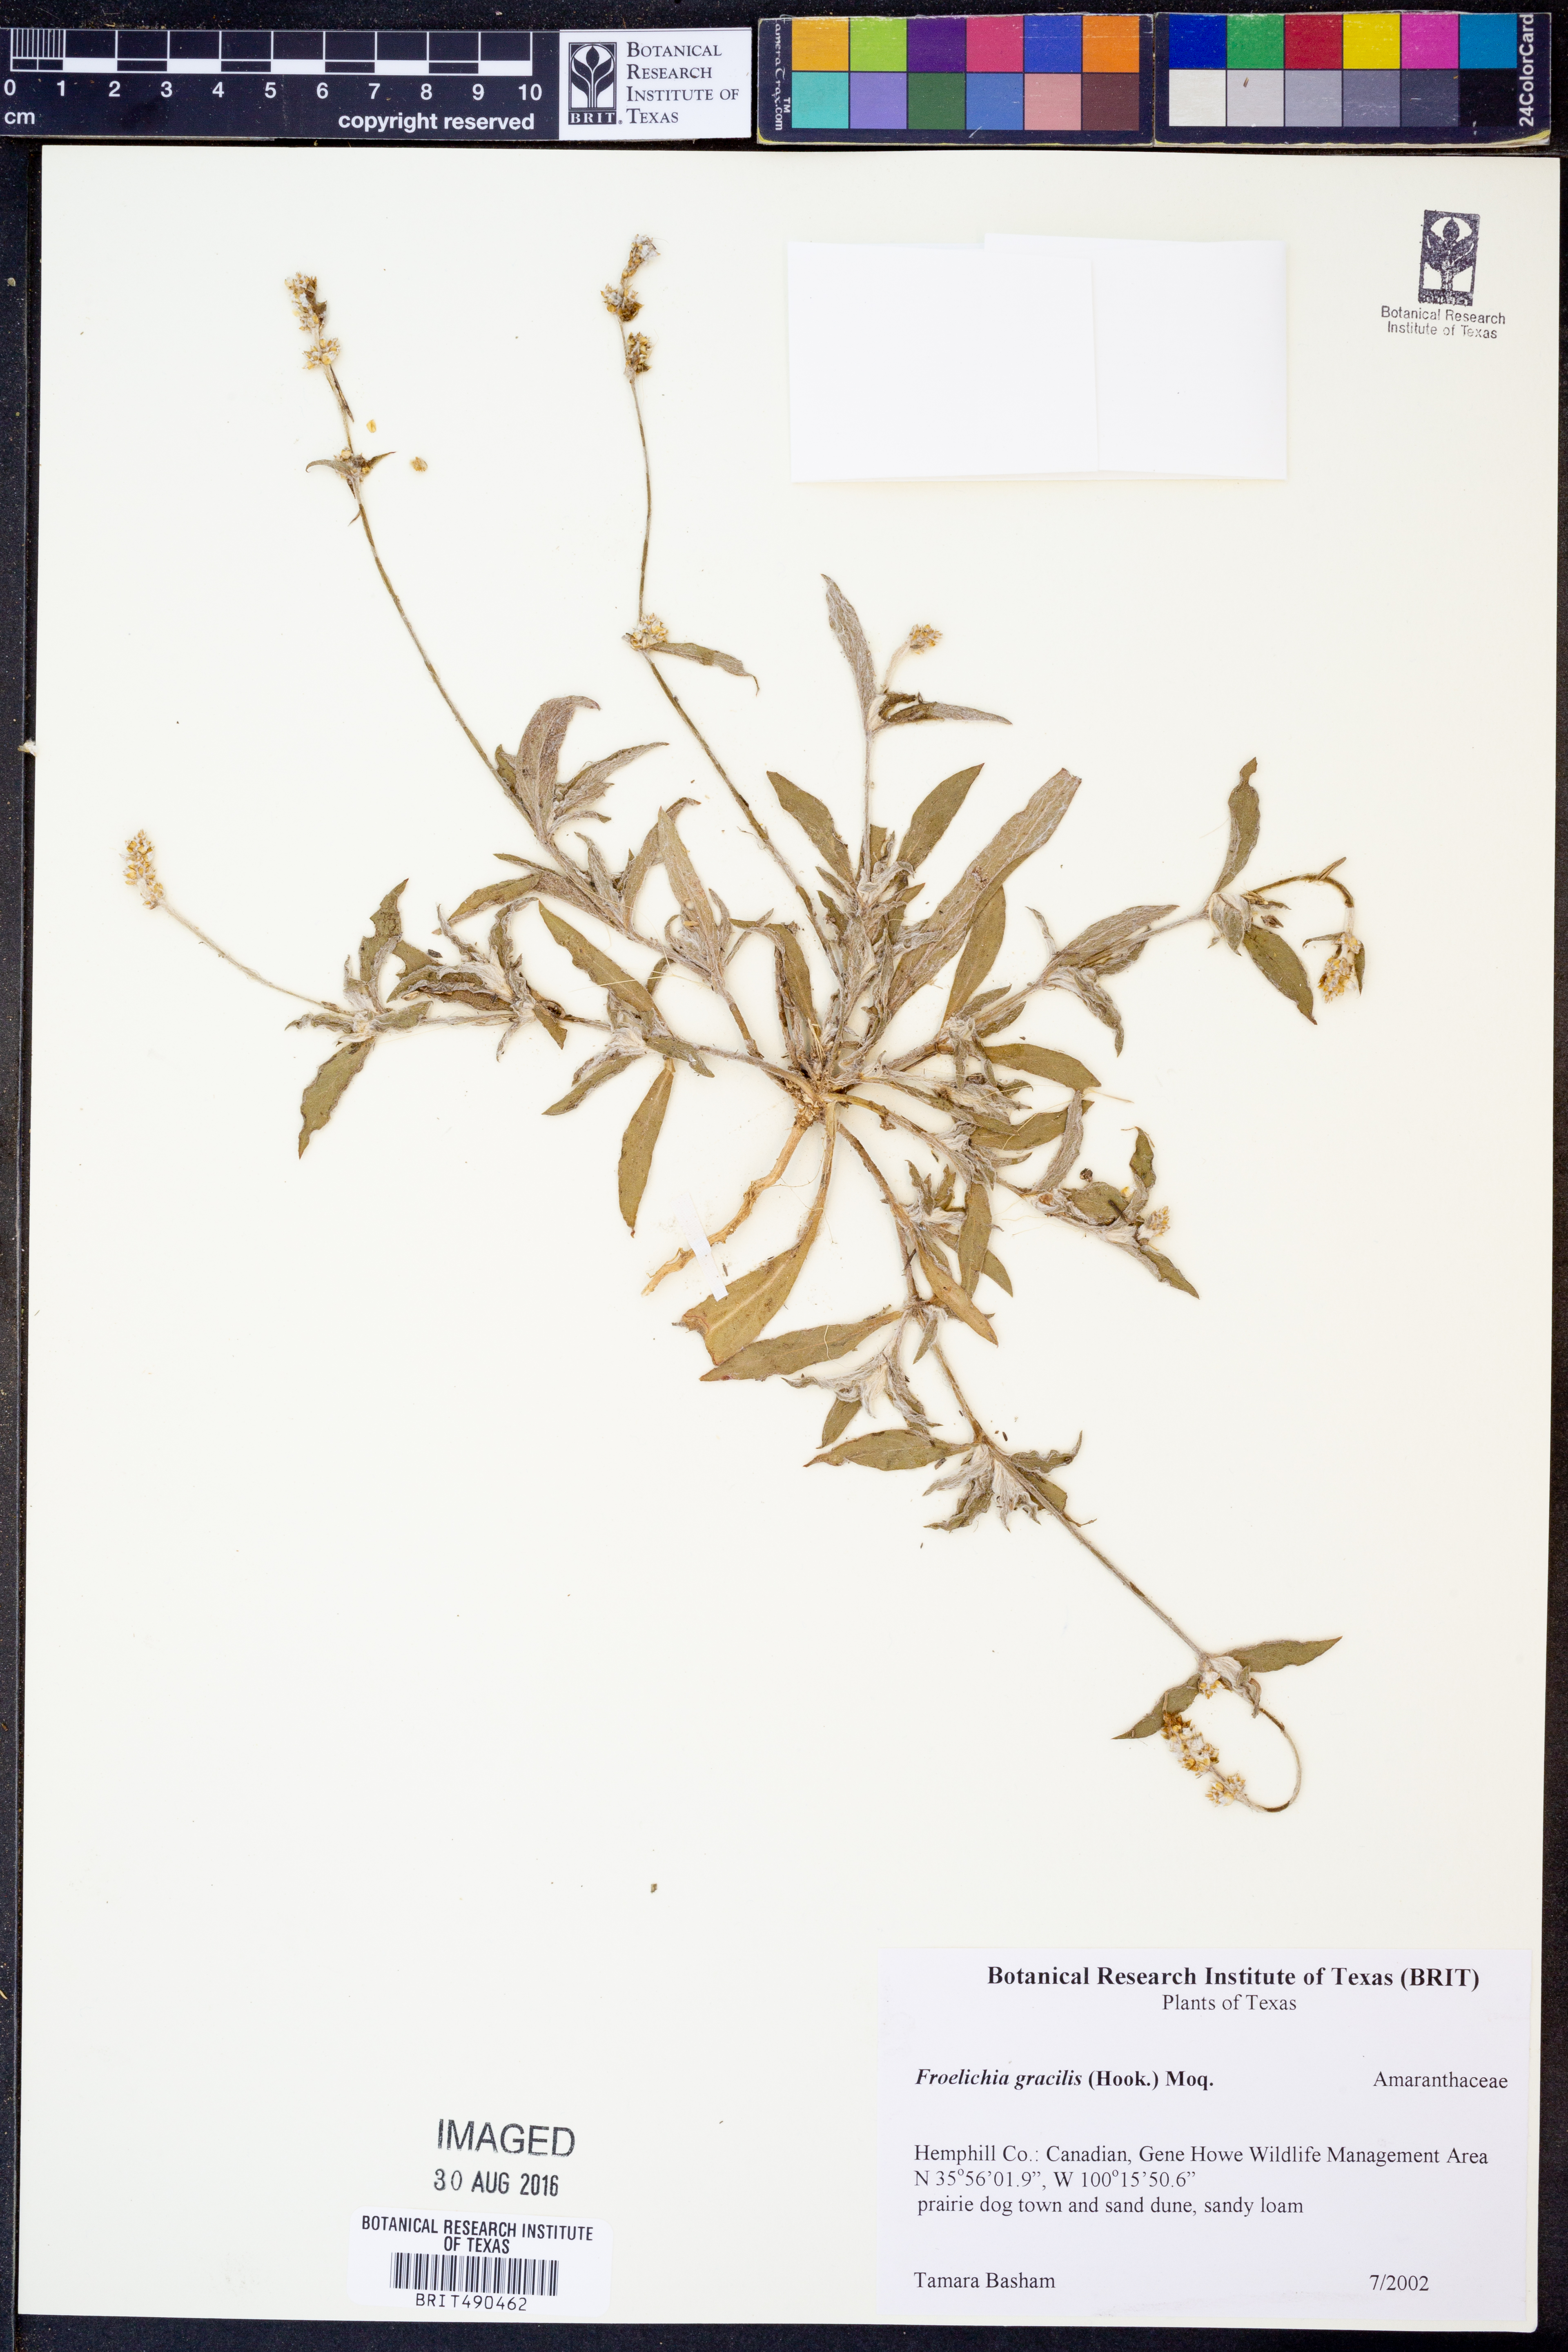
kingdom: Plantae
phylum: Tracheophyta
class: Magnoliopsida
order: Caryophyllales
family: Amaranthaceae
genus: Froelichia
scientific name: Froelichia gracilis
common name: Slender cottonweed
